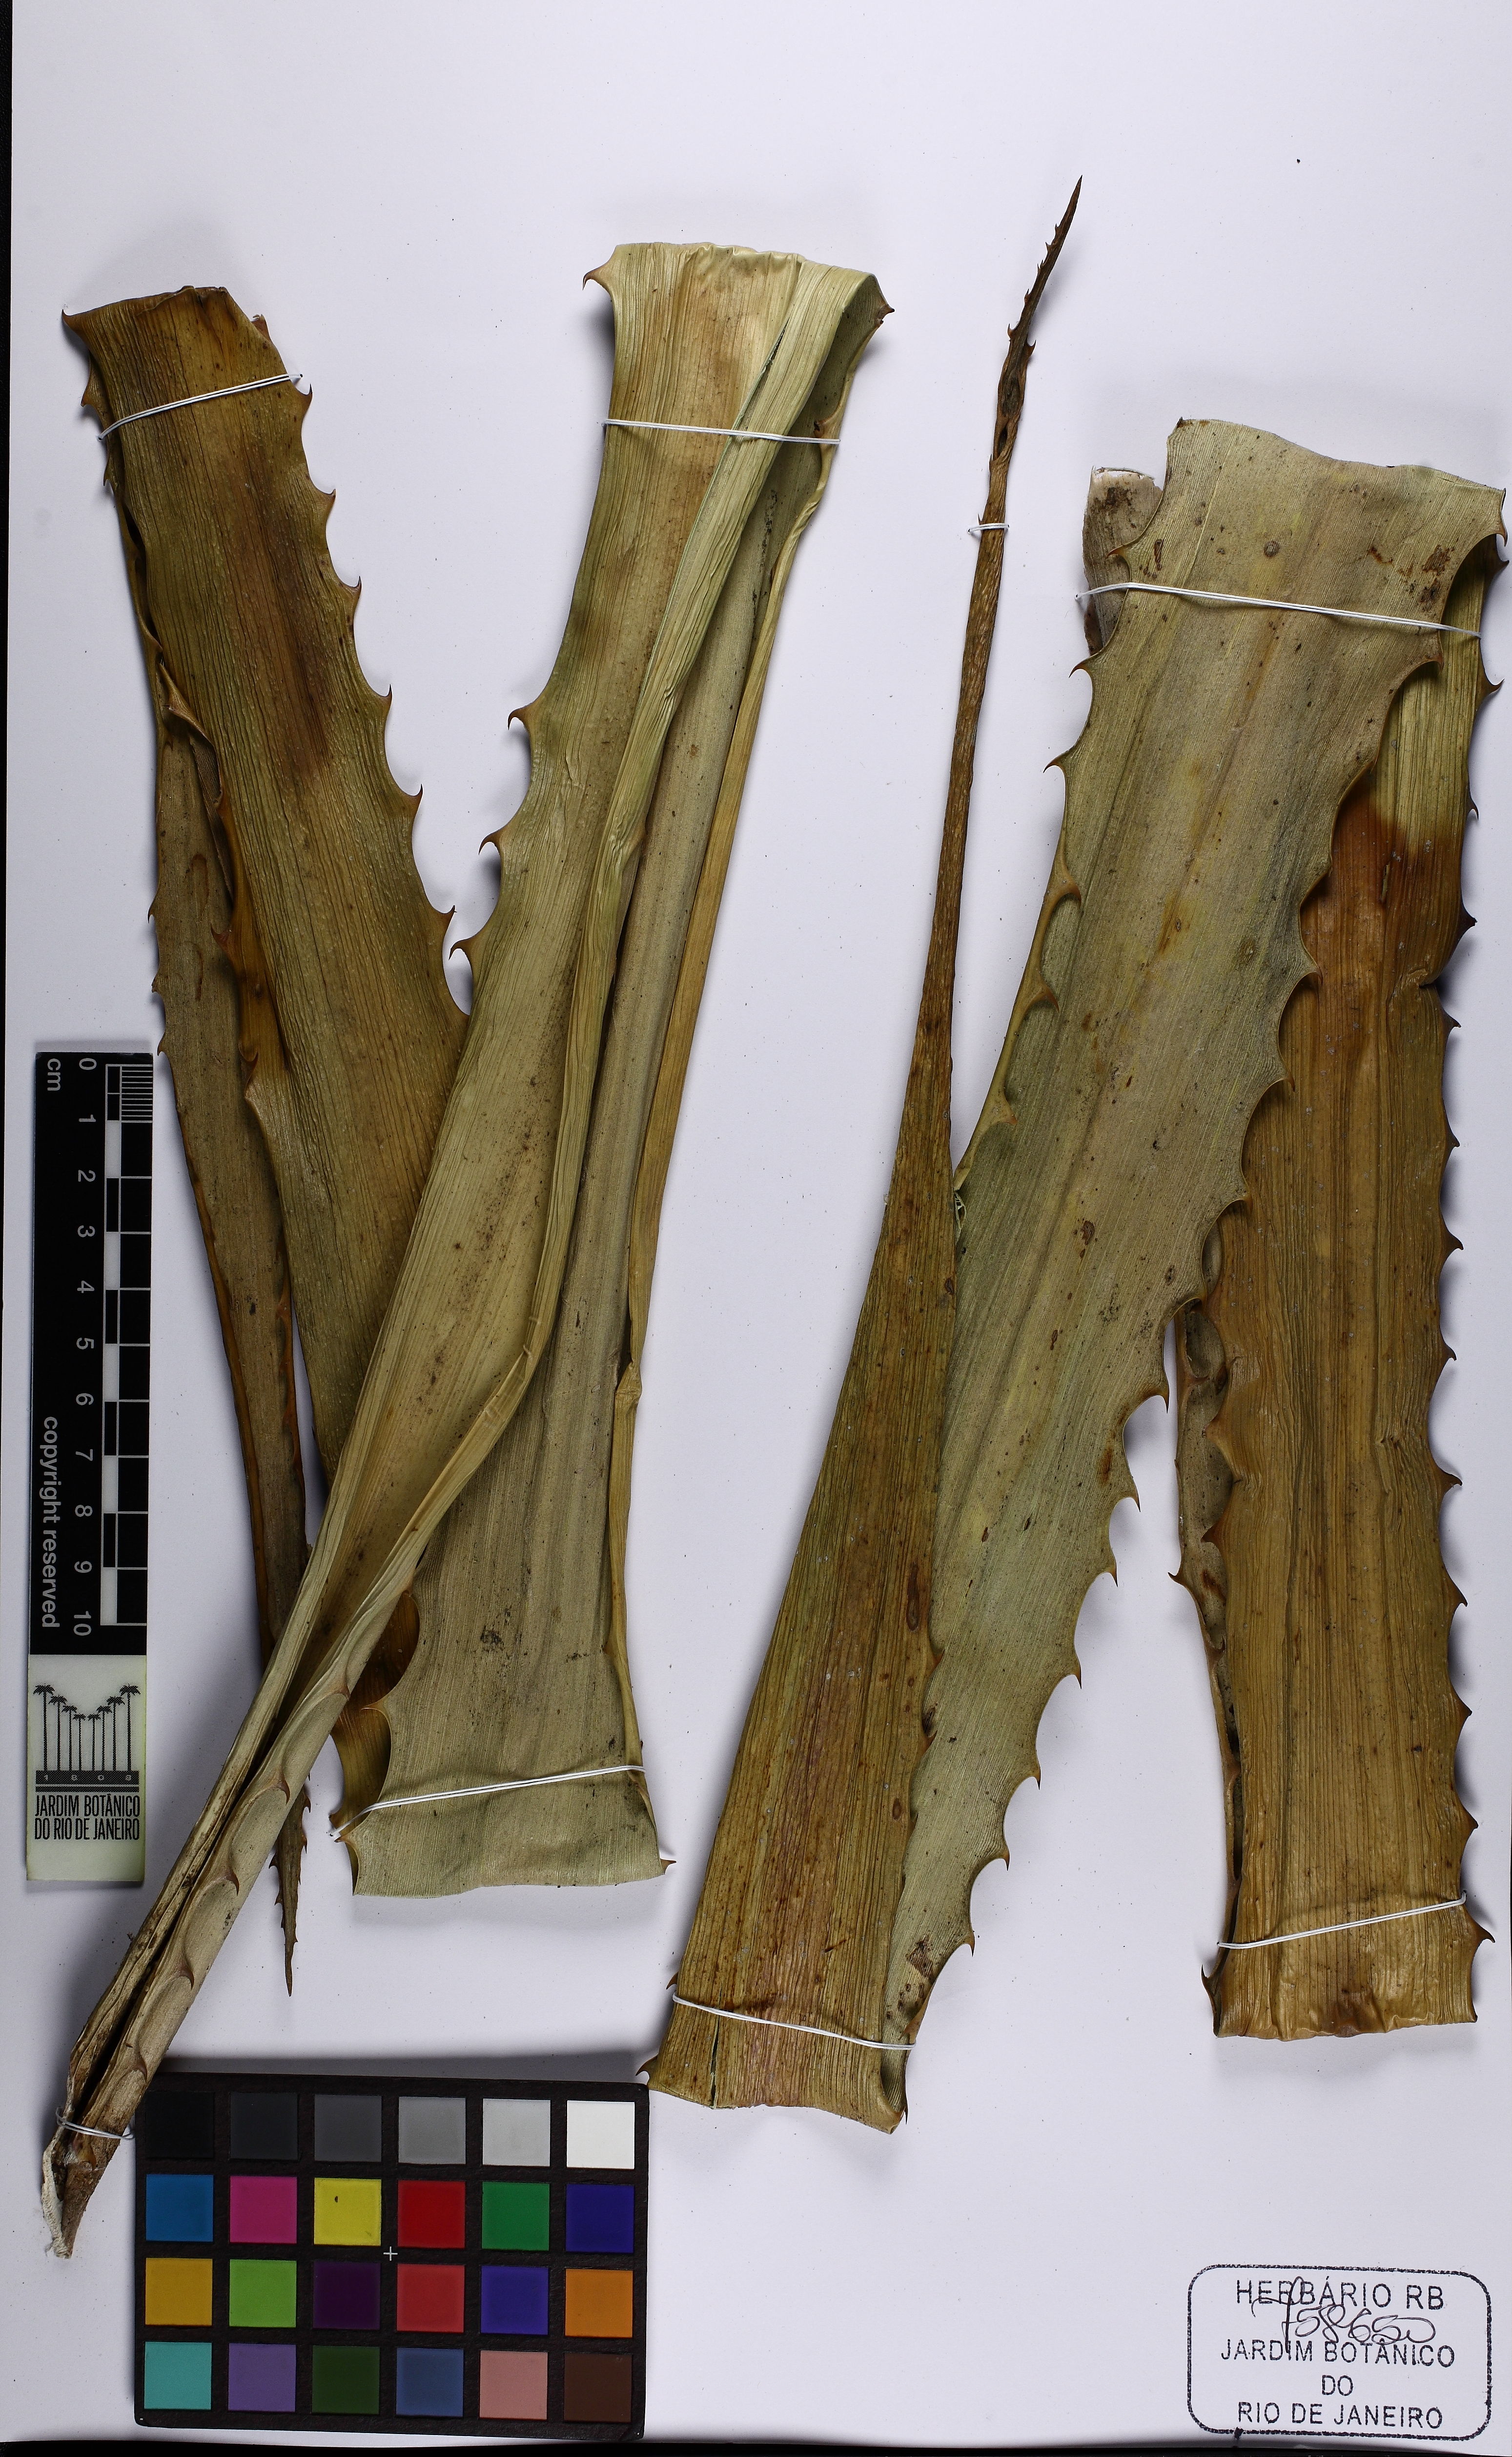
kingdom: Plantae
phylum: Tracheophyta
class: Liliopsida
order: Poales
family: Bromeliaceae
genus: Ananas
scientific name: Ananas comosus
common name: Pineapple
